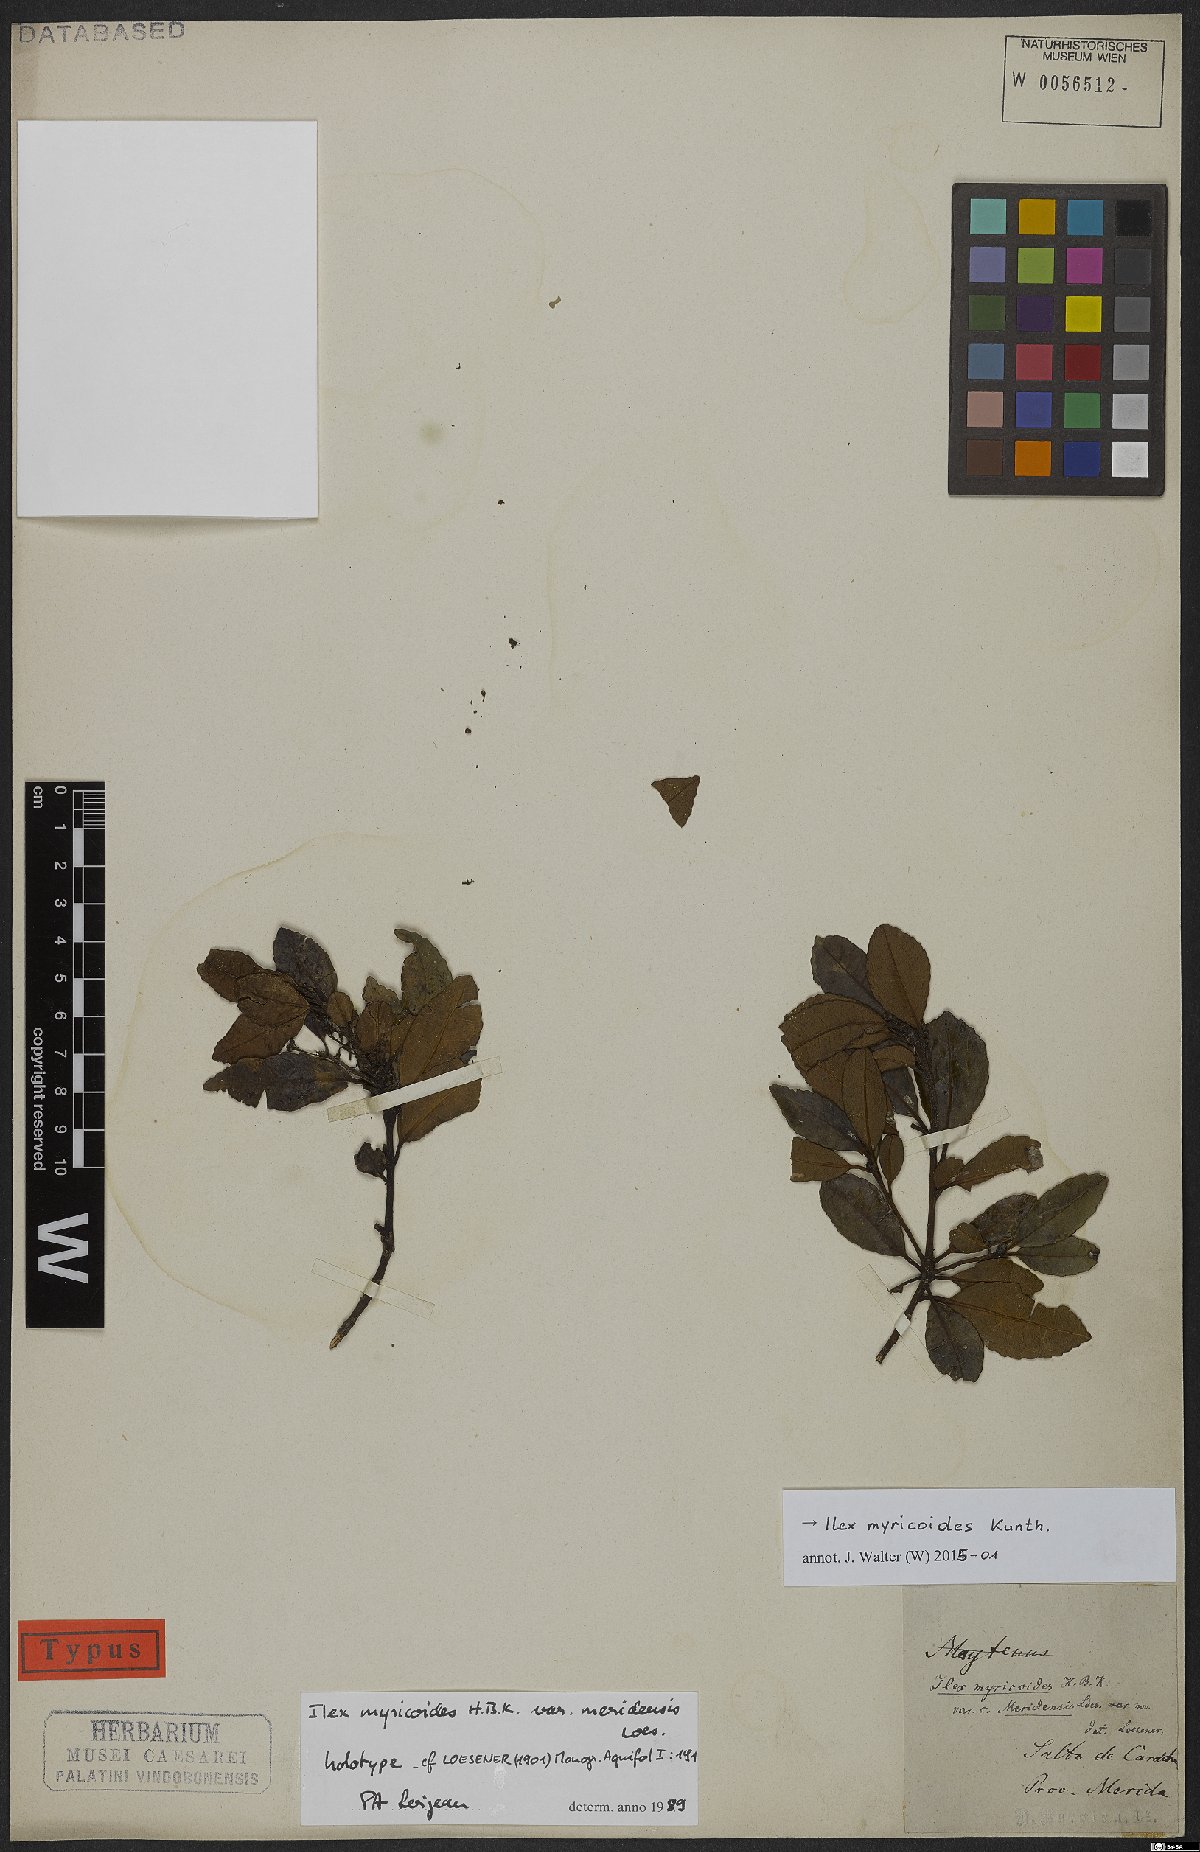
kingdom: Plantae
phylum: Tracheophyta
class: Magnoliopsida
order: Aquifoliales
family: Aquifoliaceae
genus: Ilex
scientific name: Ilex myricoides
